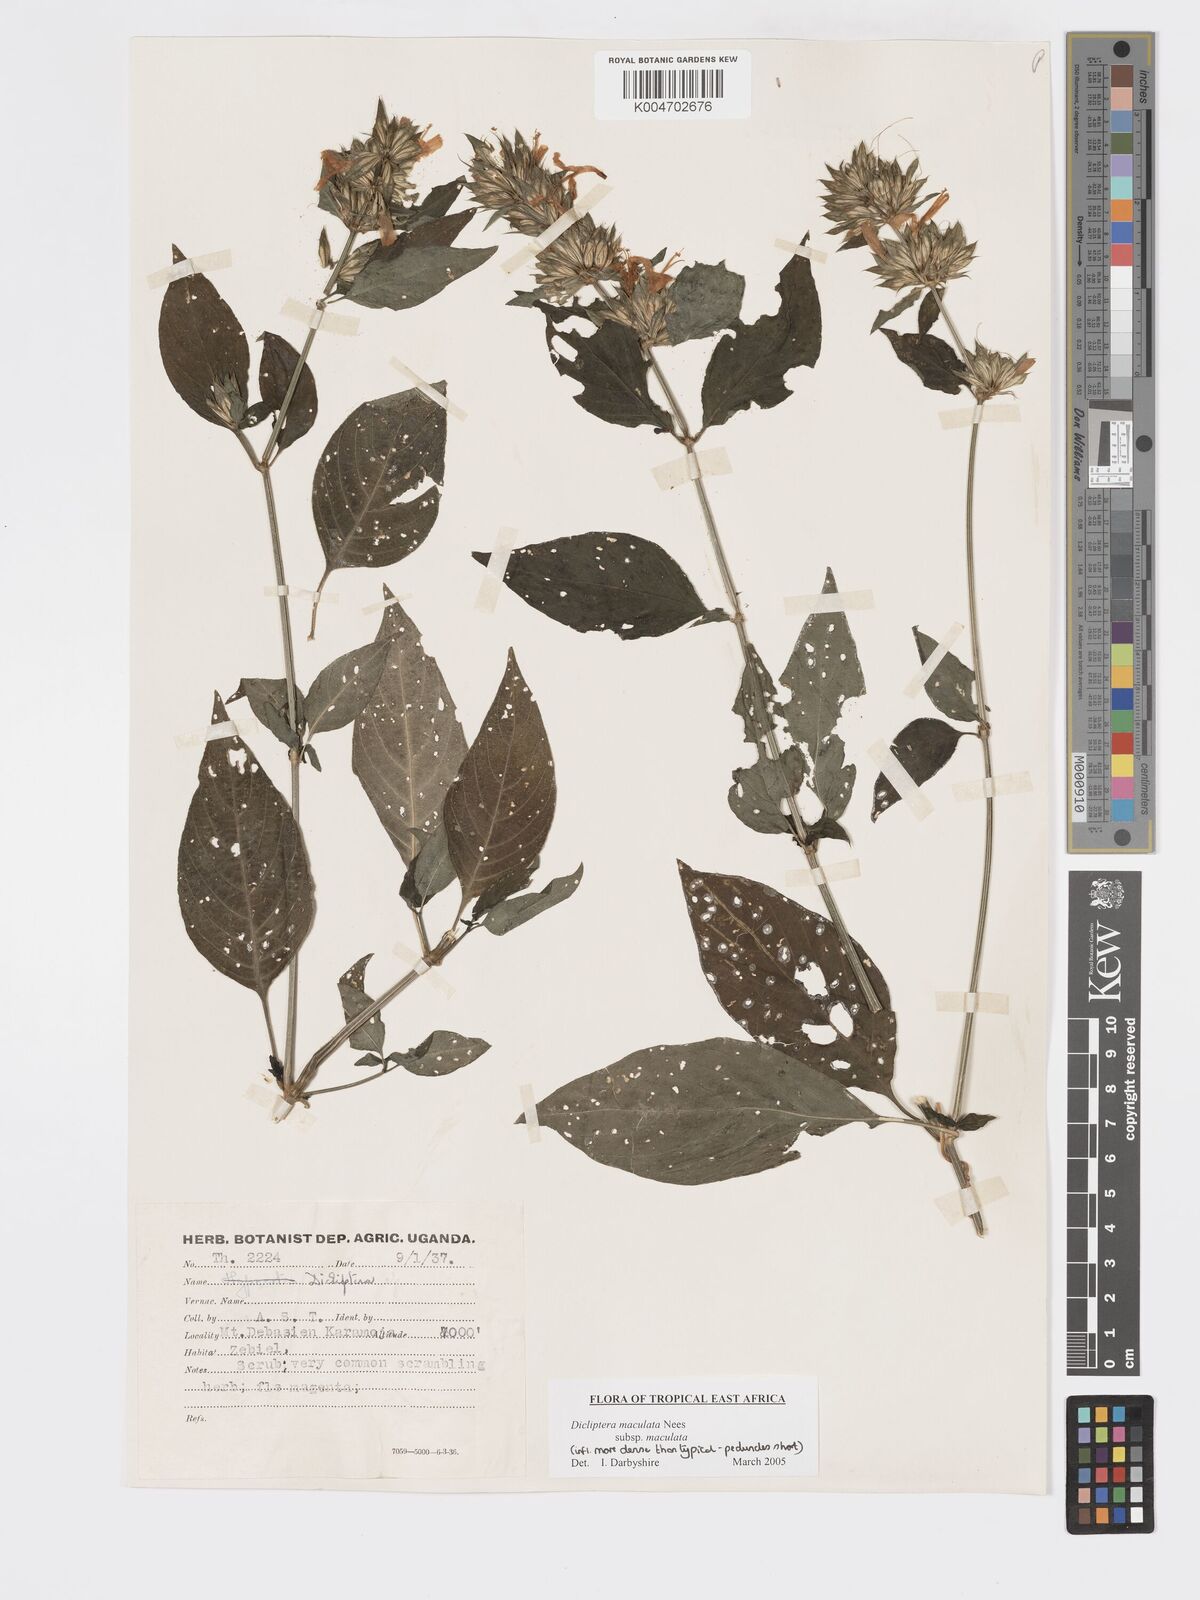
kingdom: Plantae
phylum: Tracheophyta
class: Magnoliopsida
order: Lamiales
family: Acanthaceae
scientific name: Acanthaceae
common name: Acanthaceae
